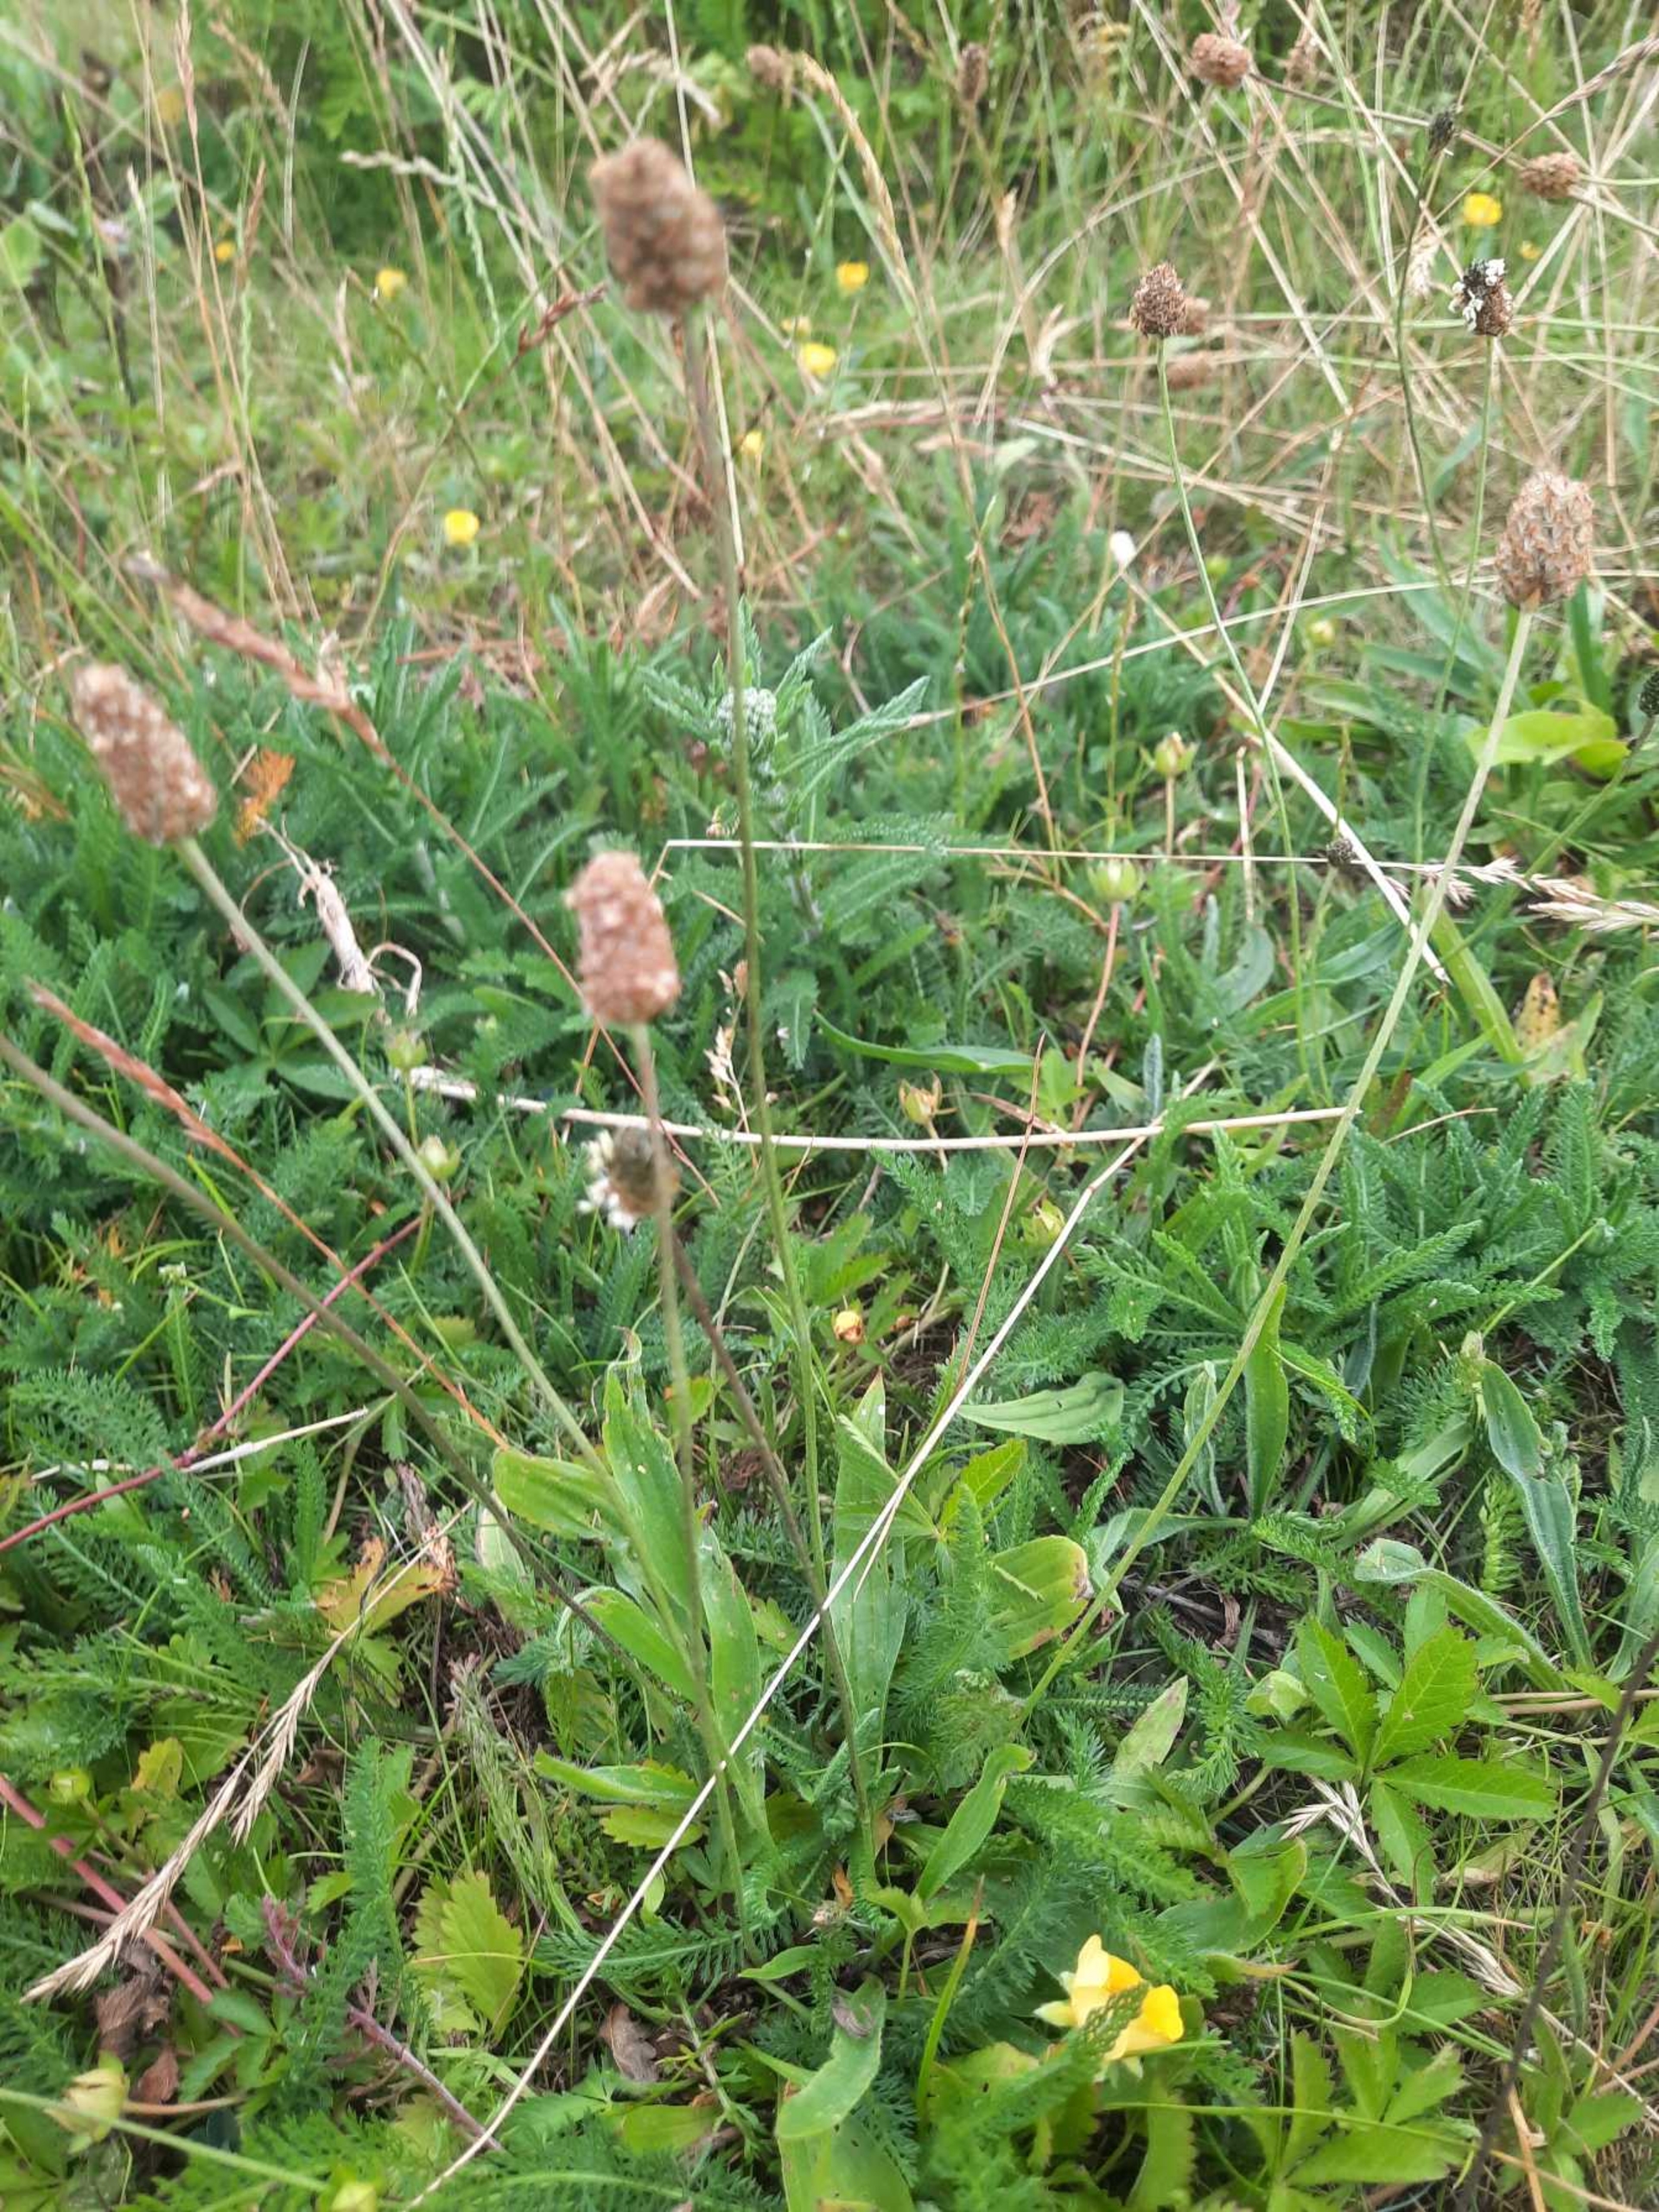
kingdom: Plantae
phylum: Tracheophyta
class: Magnoliopsida
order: Lamiales
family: Plantaginaceae
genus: Plantago
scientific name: Plantago lanceolata
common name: Lancet-vejbred
